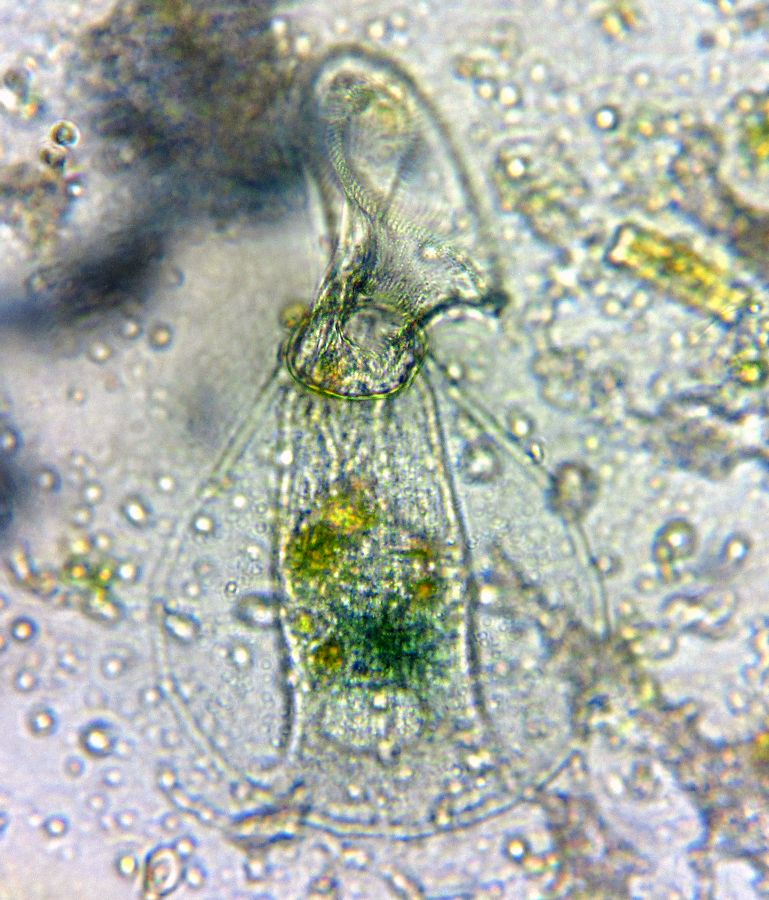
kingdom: Chromista
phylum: Ciliophora
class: Heterotrichea
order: Heterotrichida
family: Folliculinidae
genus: Folliculina
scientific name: Folliculina boltoni
